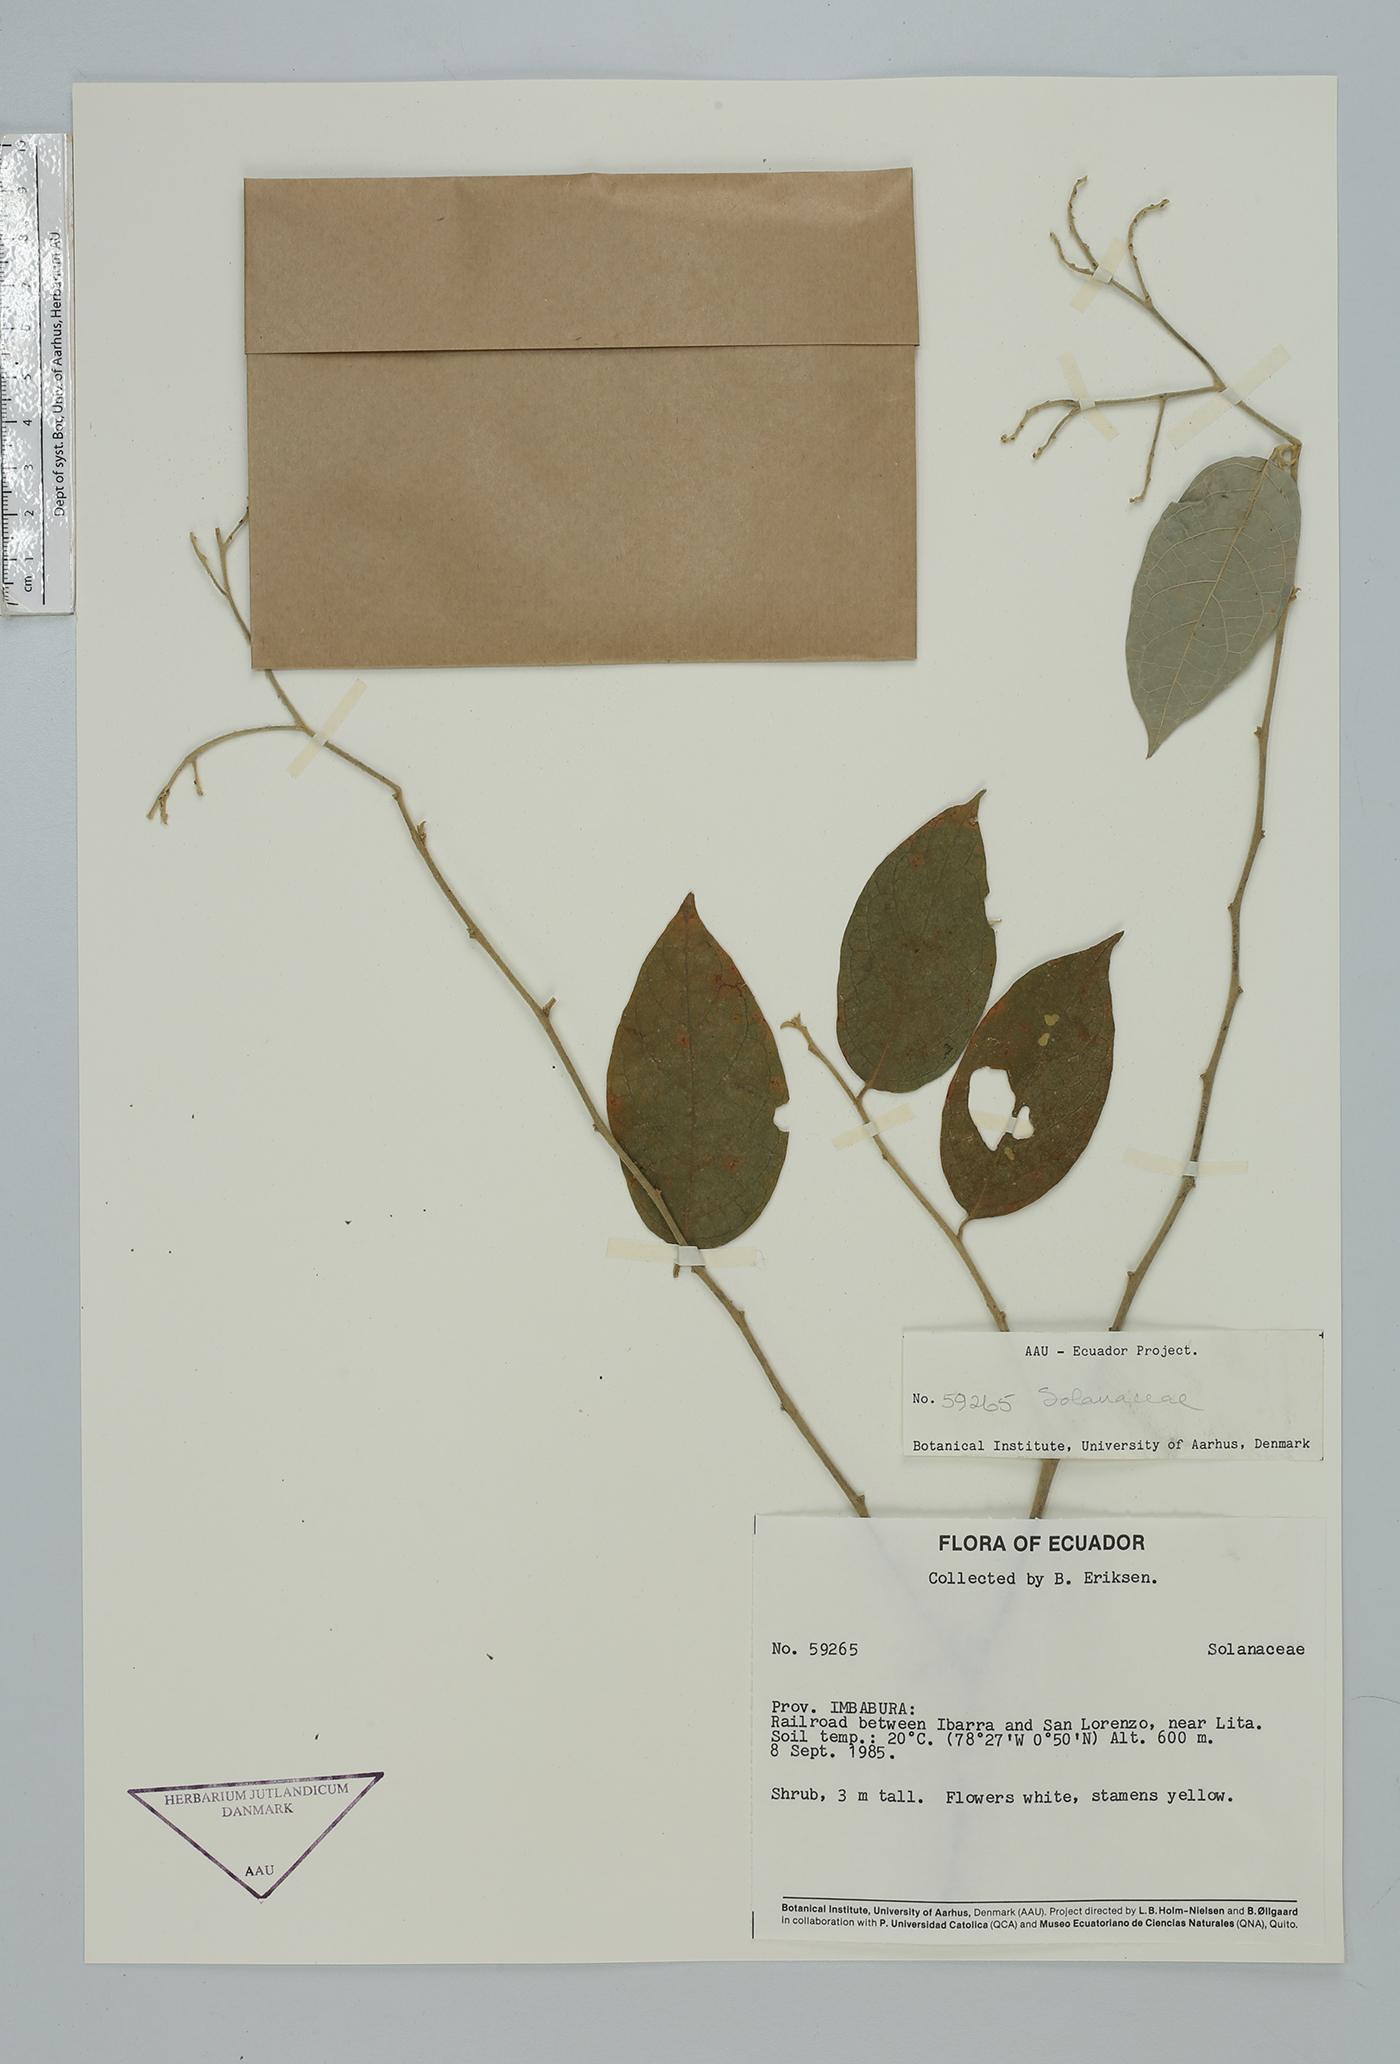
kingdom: Plantae
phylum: Tracheophyta
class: Magnoliopsida
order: Solanales
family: Solanaceae
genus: Solanum
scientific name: Solanum
